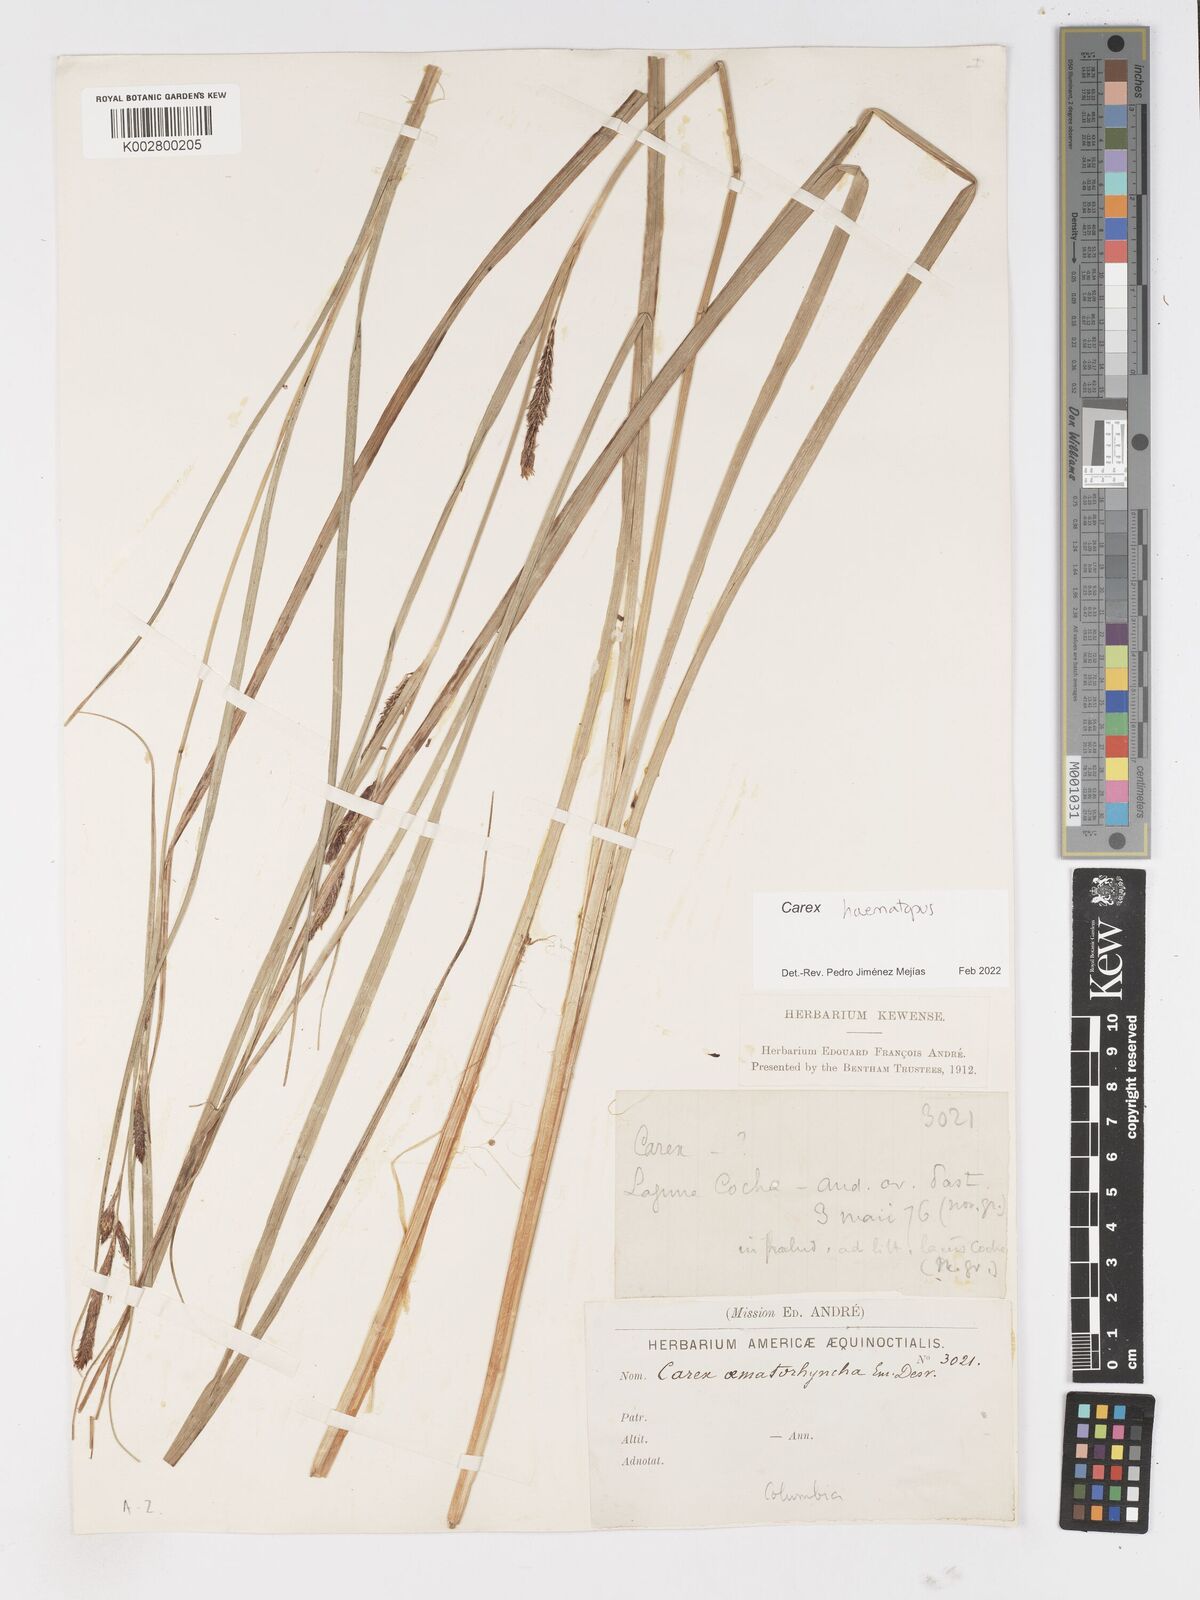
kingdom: Plantae
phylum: Tracheophyta
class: Liliopsida
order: Poales
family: Cyperaceae
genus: Carex
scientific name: Carex haematopus
